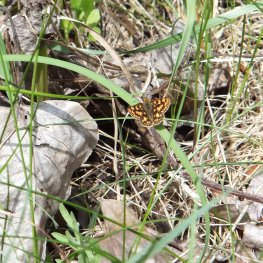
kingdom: Animalia
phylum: Arthropoda
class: Insecta
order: Lepidoptera
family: Hesperiidae
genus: Carterocephalus
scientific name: Carterocephalus palaemon
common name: Chequered Skipper
